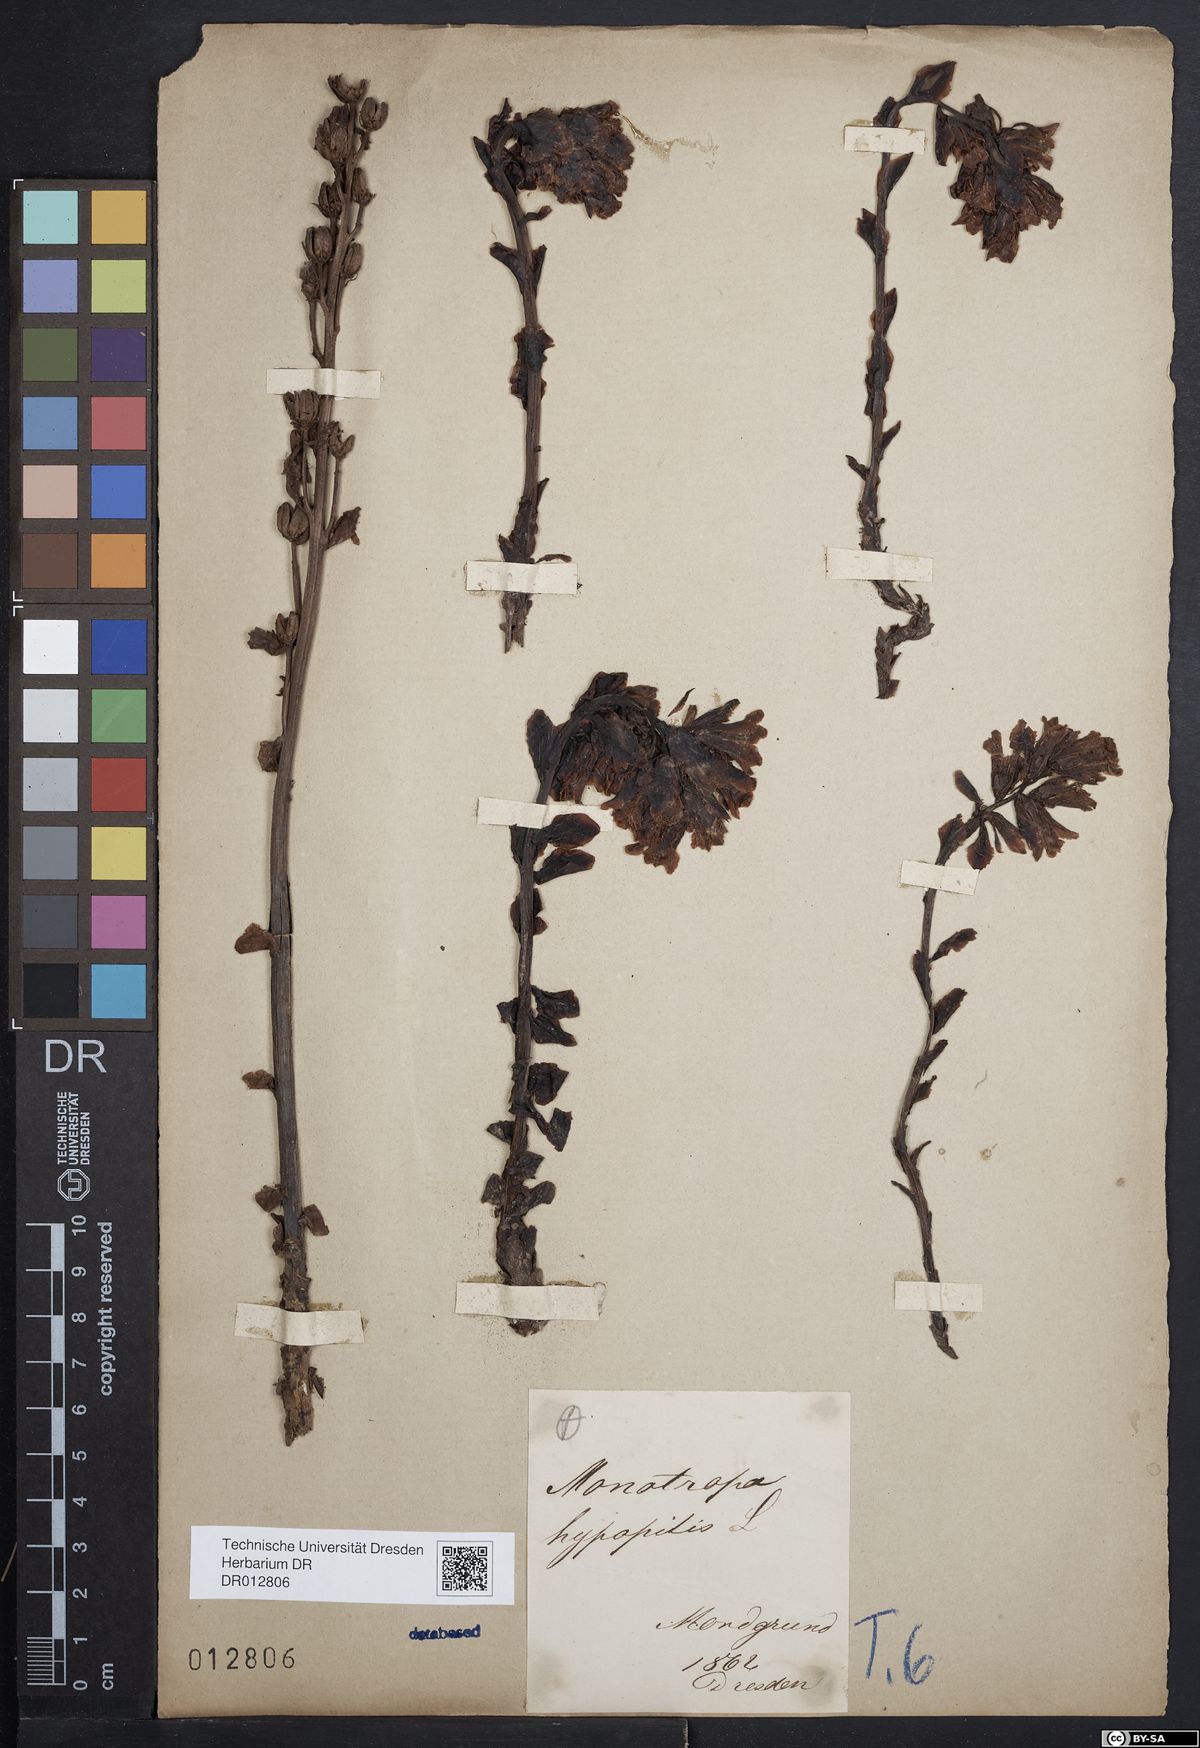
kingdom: Plantae
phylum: Tracheophyta
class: Magnoliopsida
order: Ericales
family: Ericaceae
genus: Hypopitys
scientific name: Hypopitys monotropa
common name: Yellow bird's-nest
